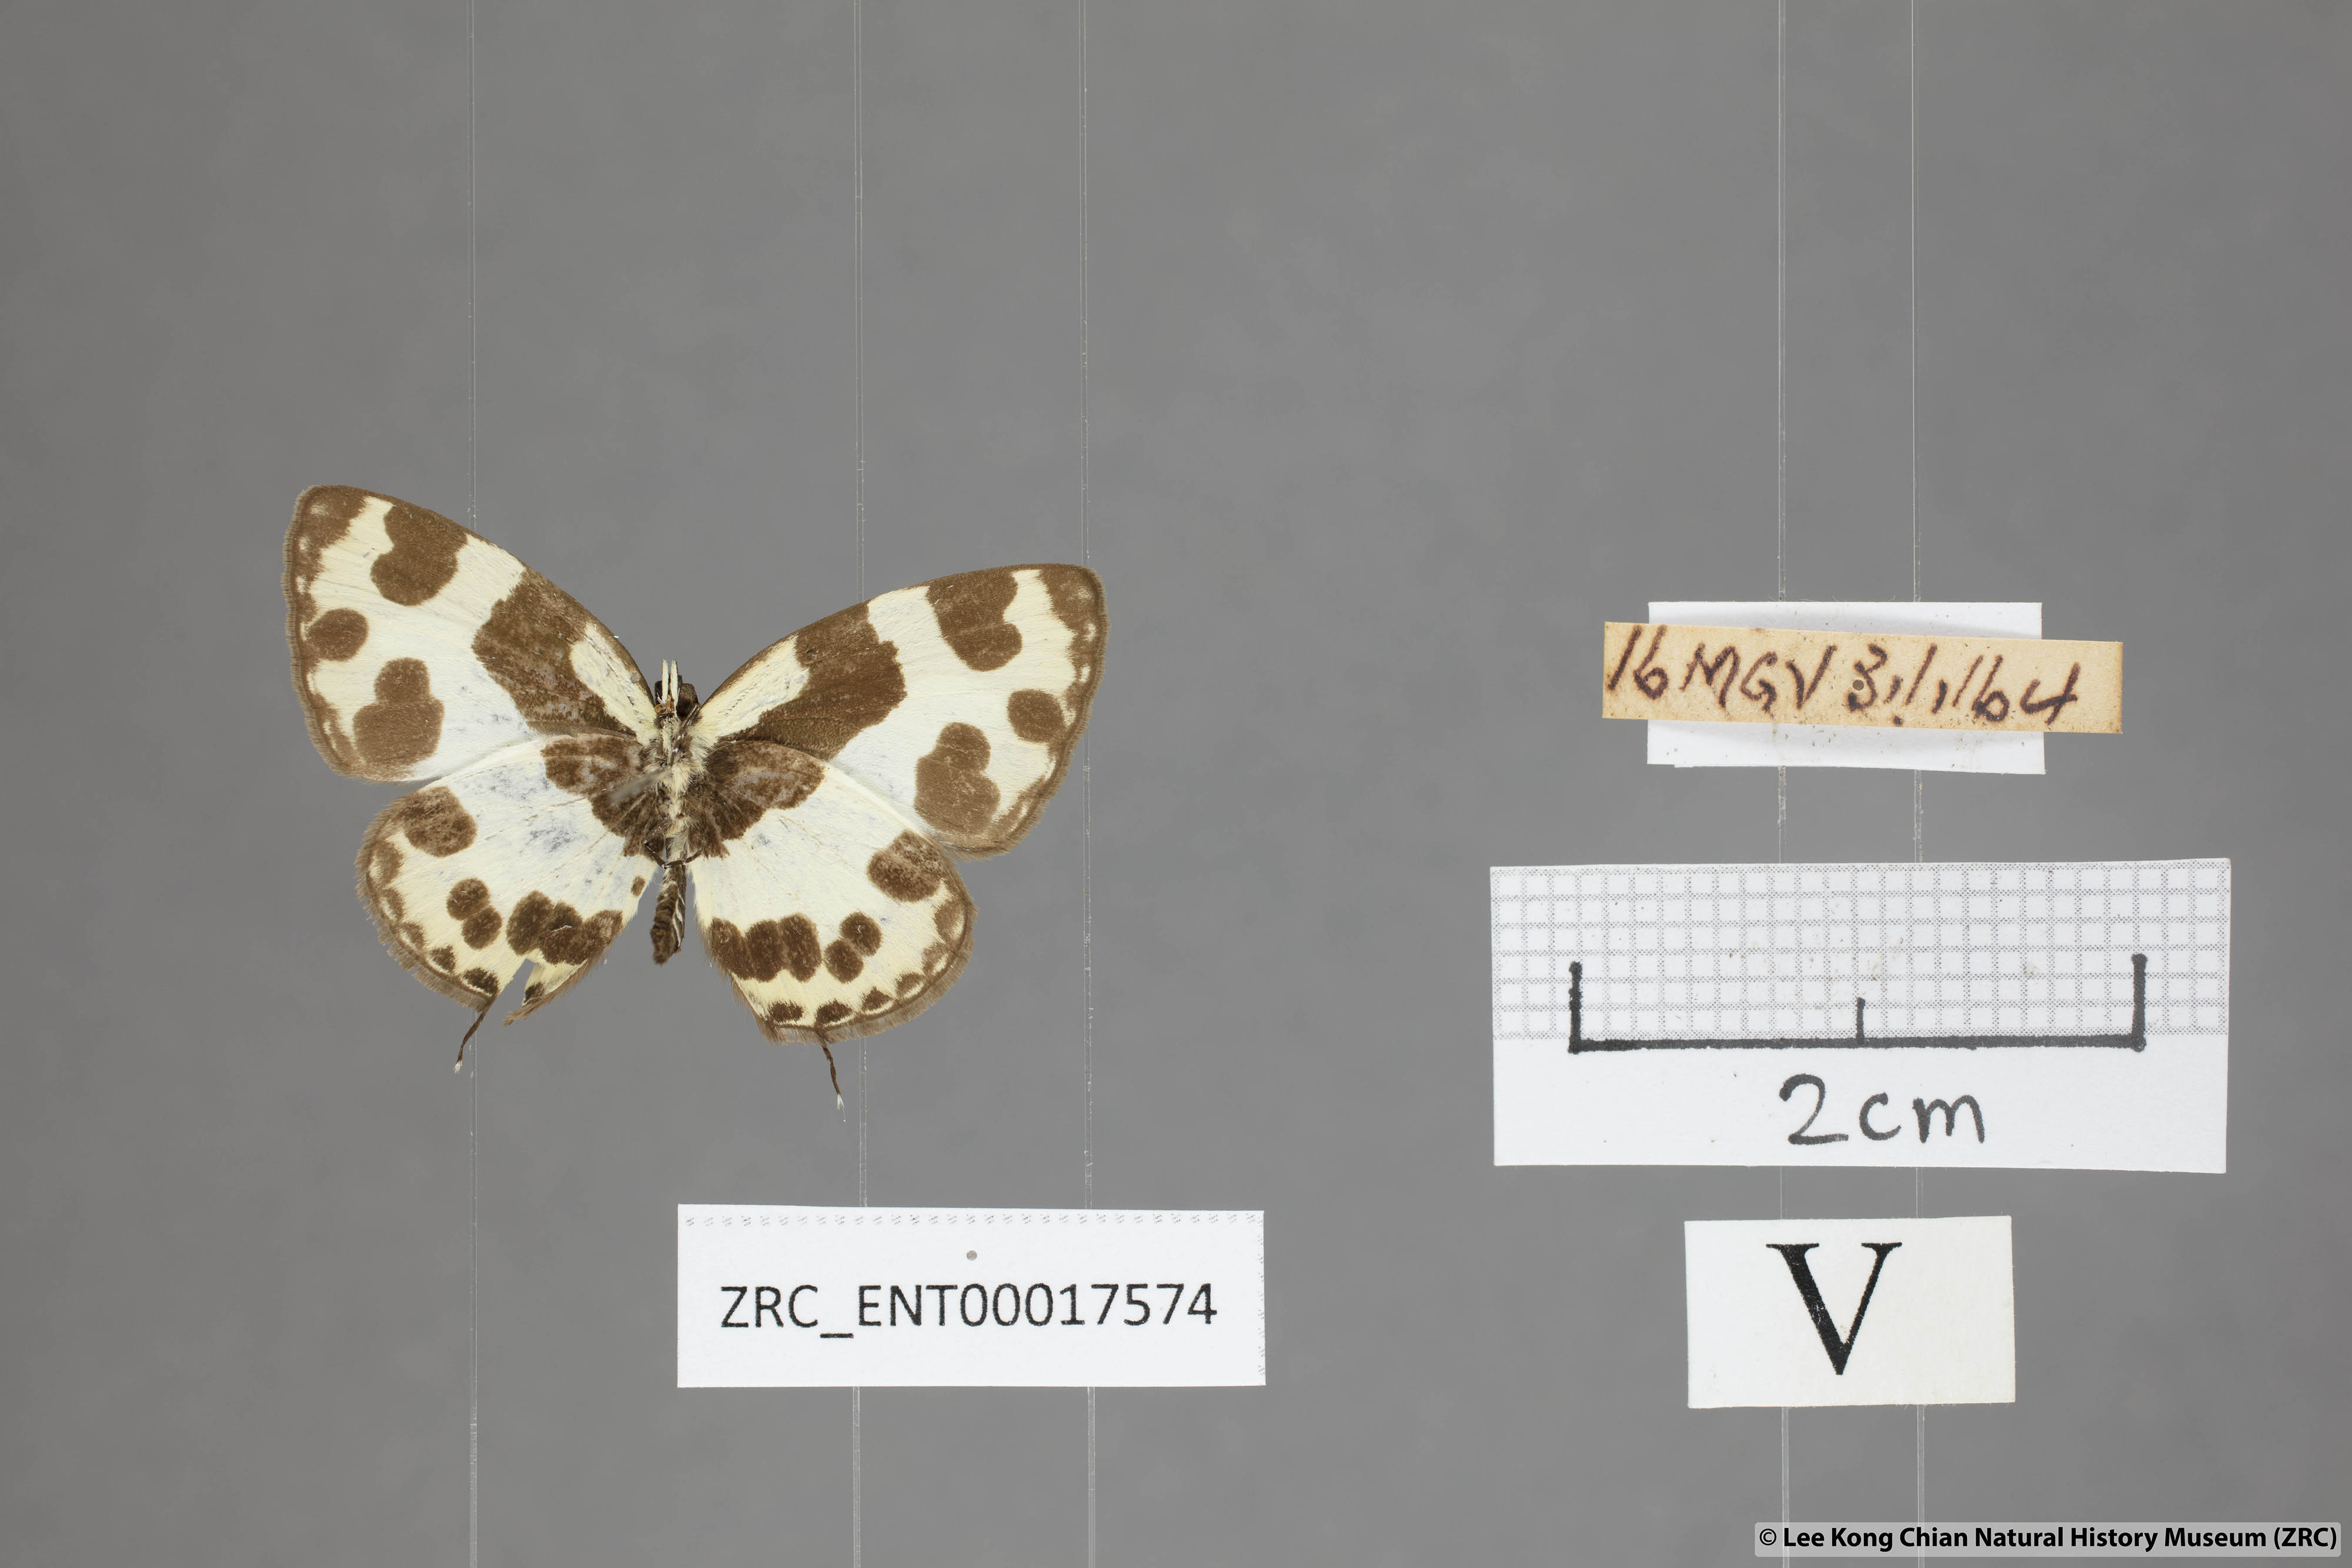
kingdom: Animalia
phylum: Arthropoda
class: Insecta
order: Lepidoptera
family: Lycaenidae
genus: Caleta
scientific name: Caleta elna
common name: Elbowed pierrot
